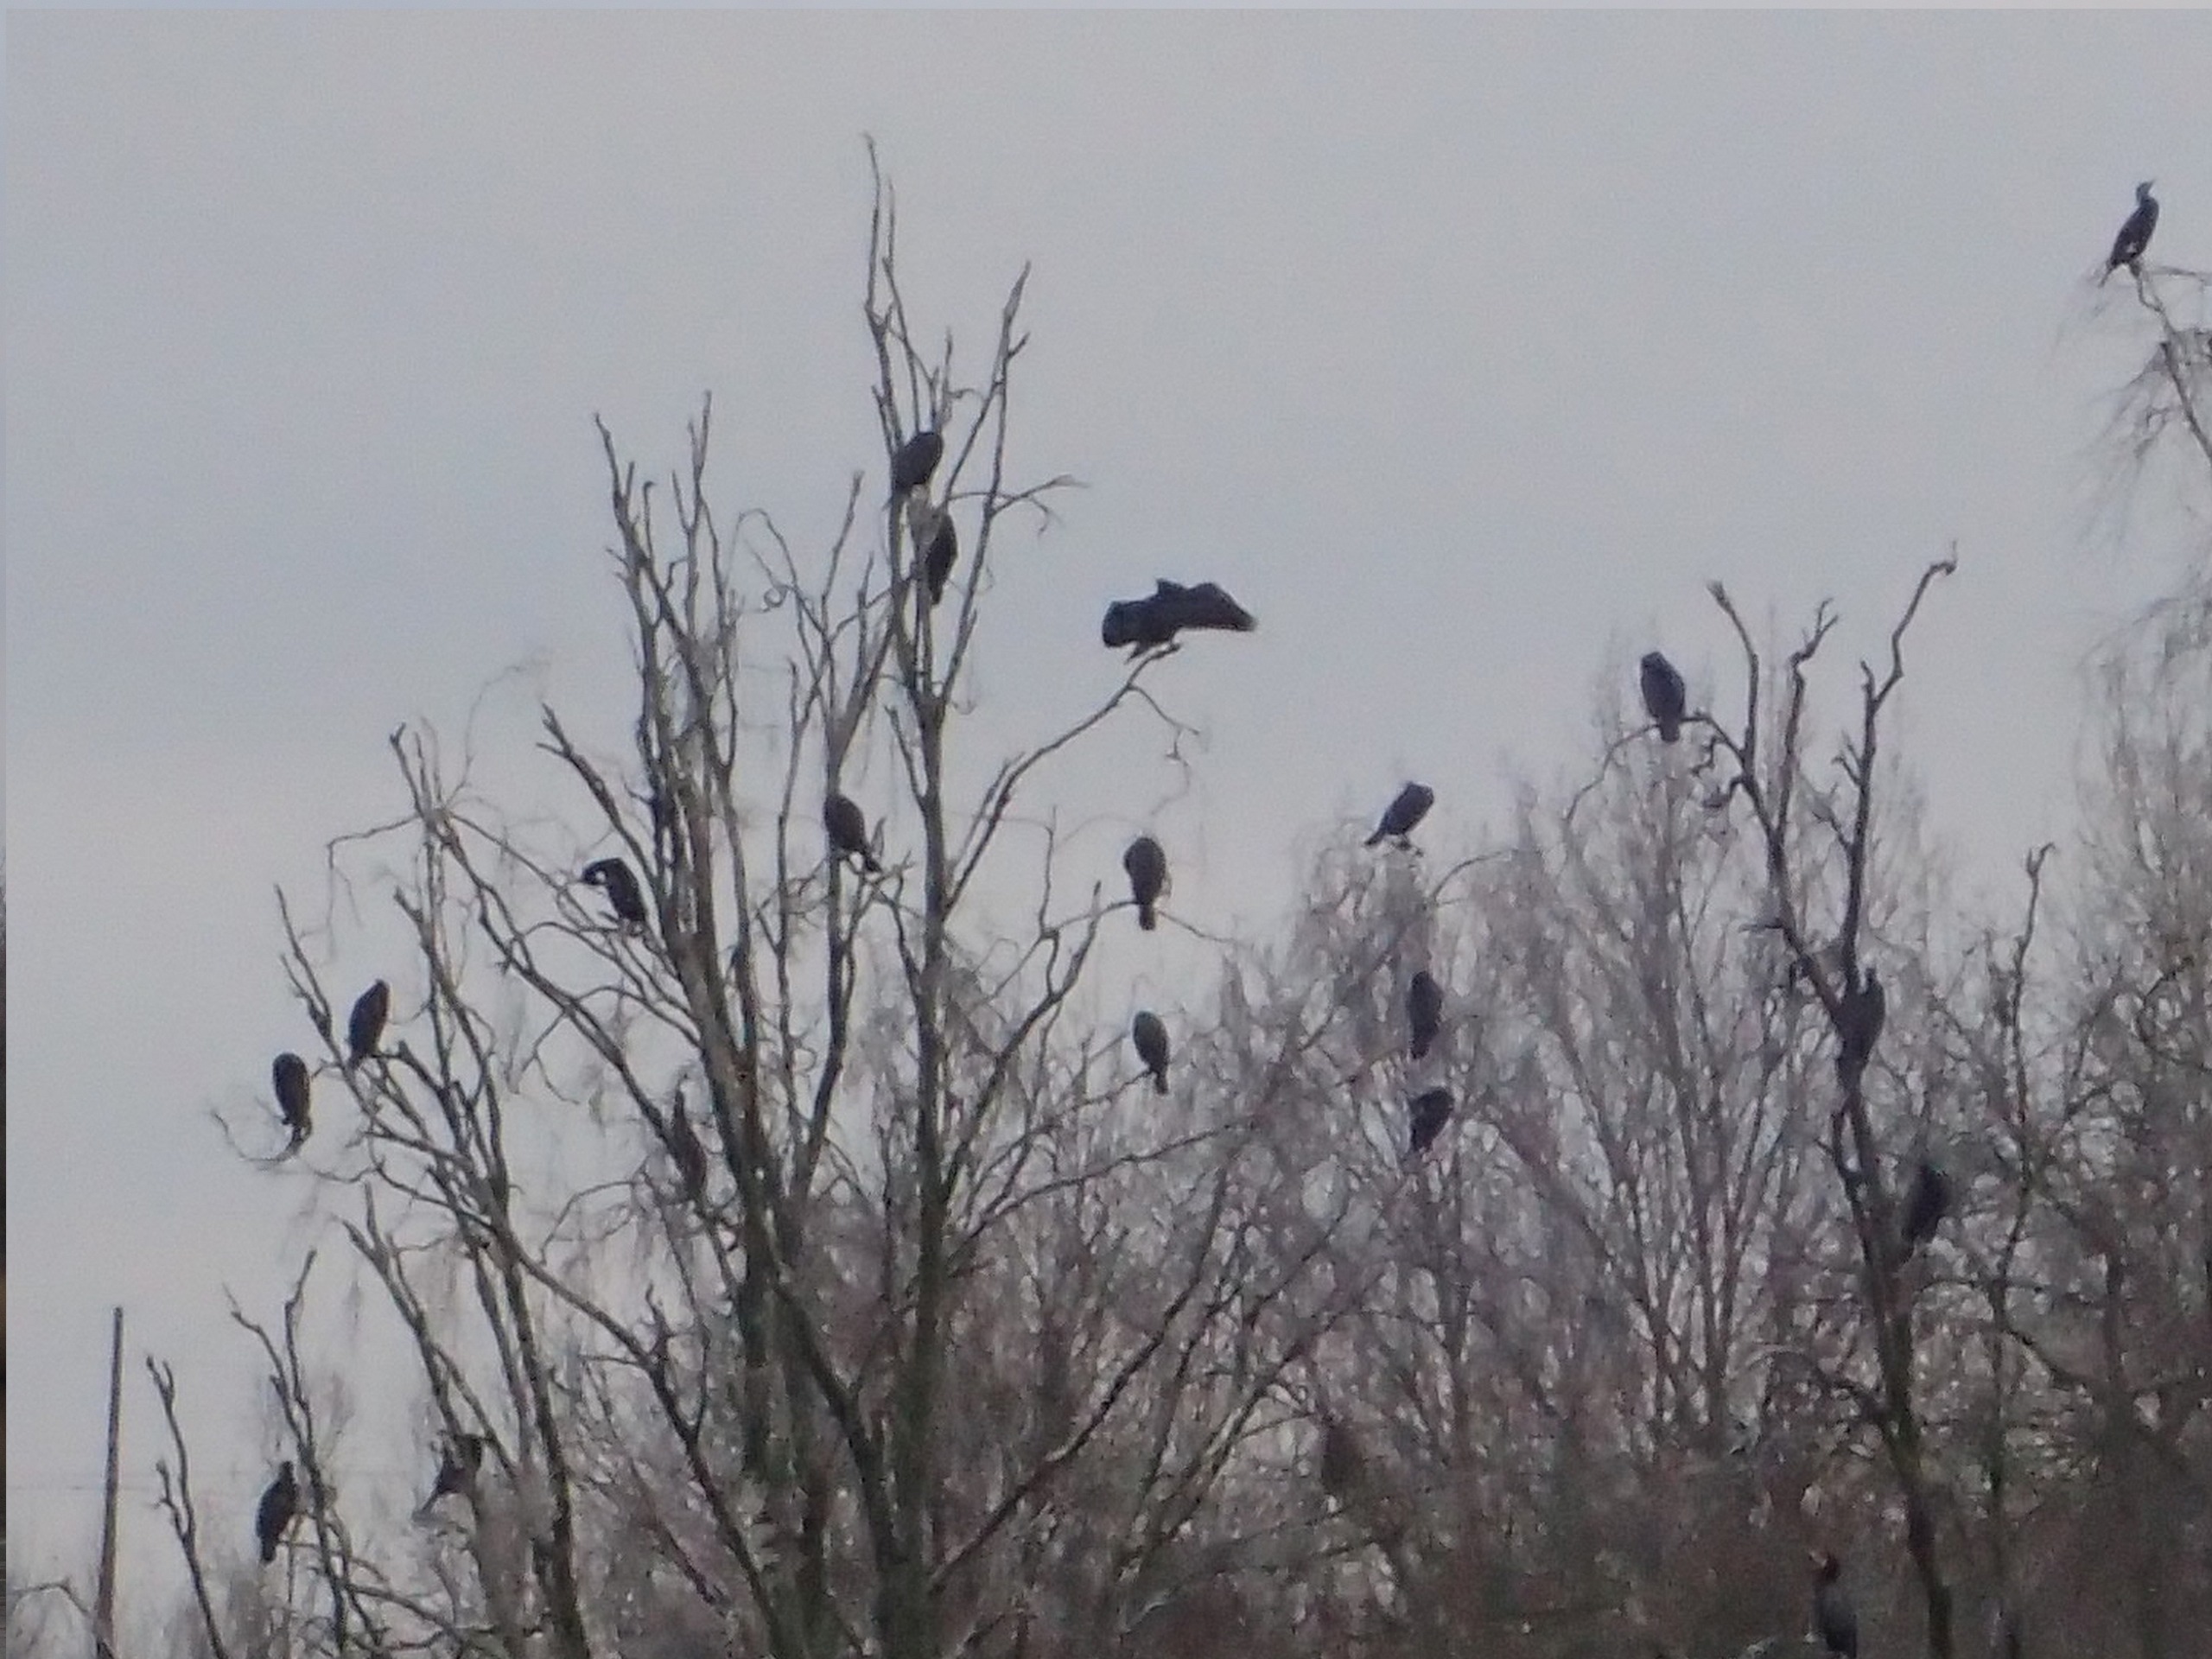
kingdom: Animalia
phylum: Chordata
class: Aves
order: Suliformes
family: Phalacrocoracidae
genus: Phalacrocorax
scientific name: Phalacrocorax carbo
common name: Skarv
